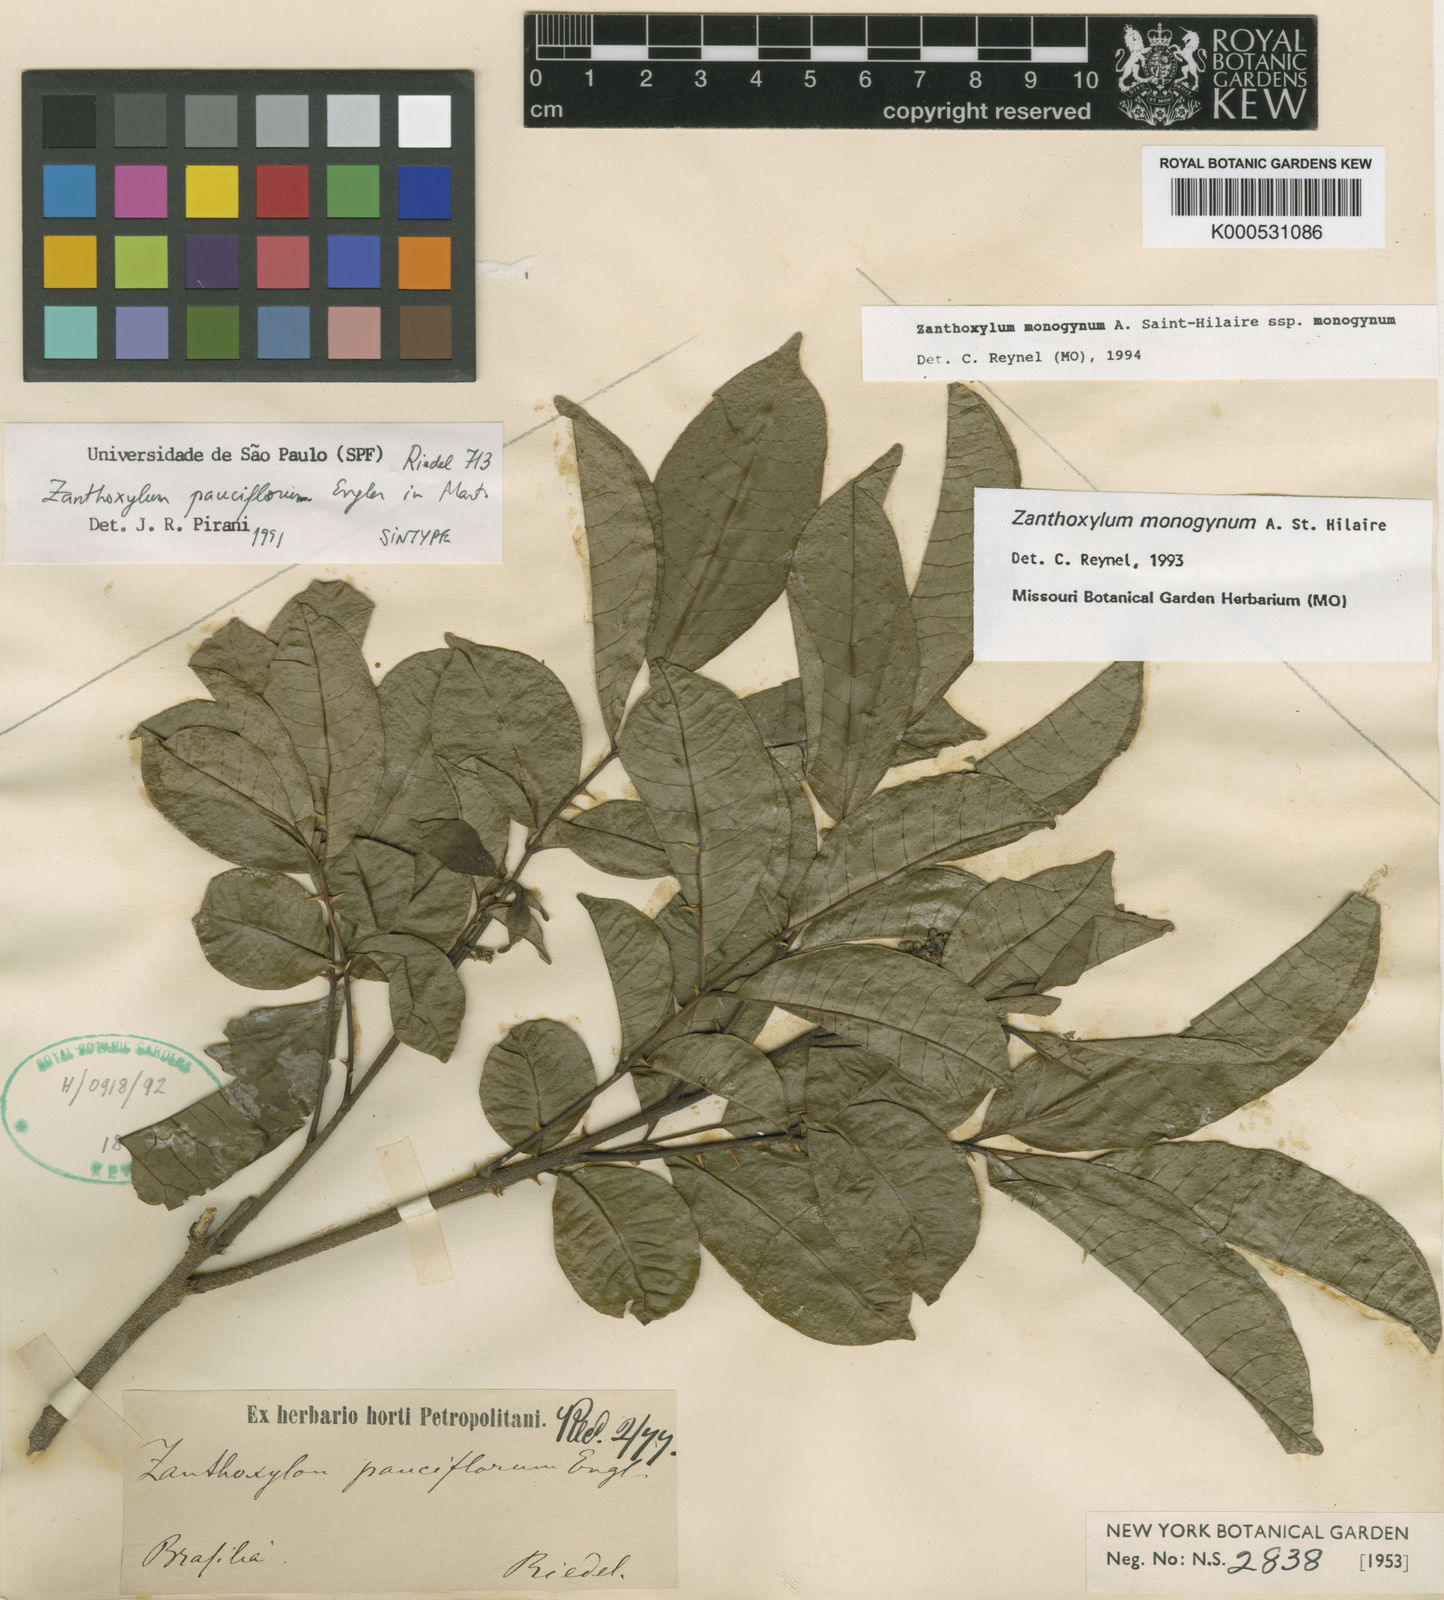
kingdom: Plantae
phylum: Tracheophyta
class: Magnoliopsida
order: Sapindales
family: Rutaceae
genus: Zanthoxylum
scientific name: Zanthoxylum monogynum
